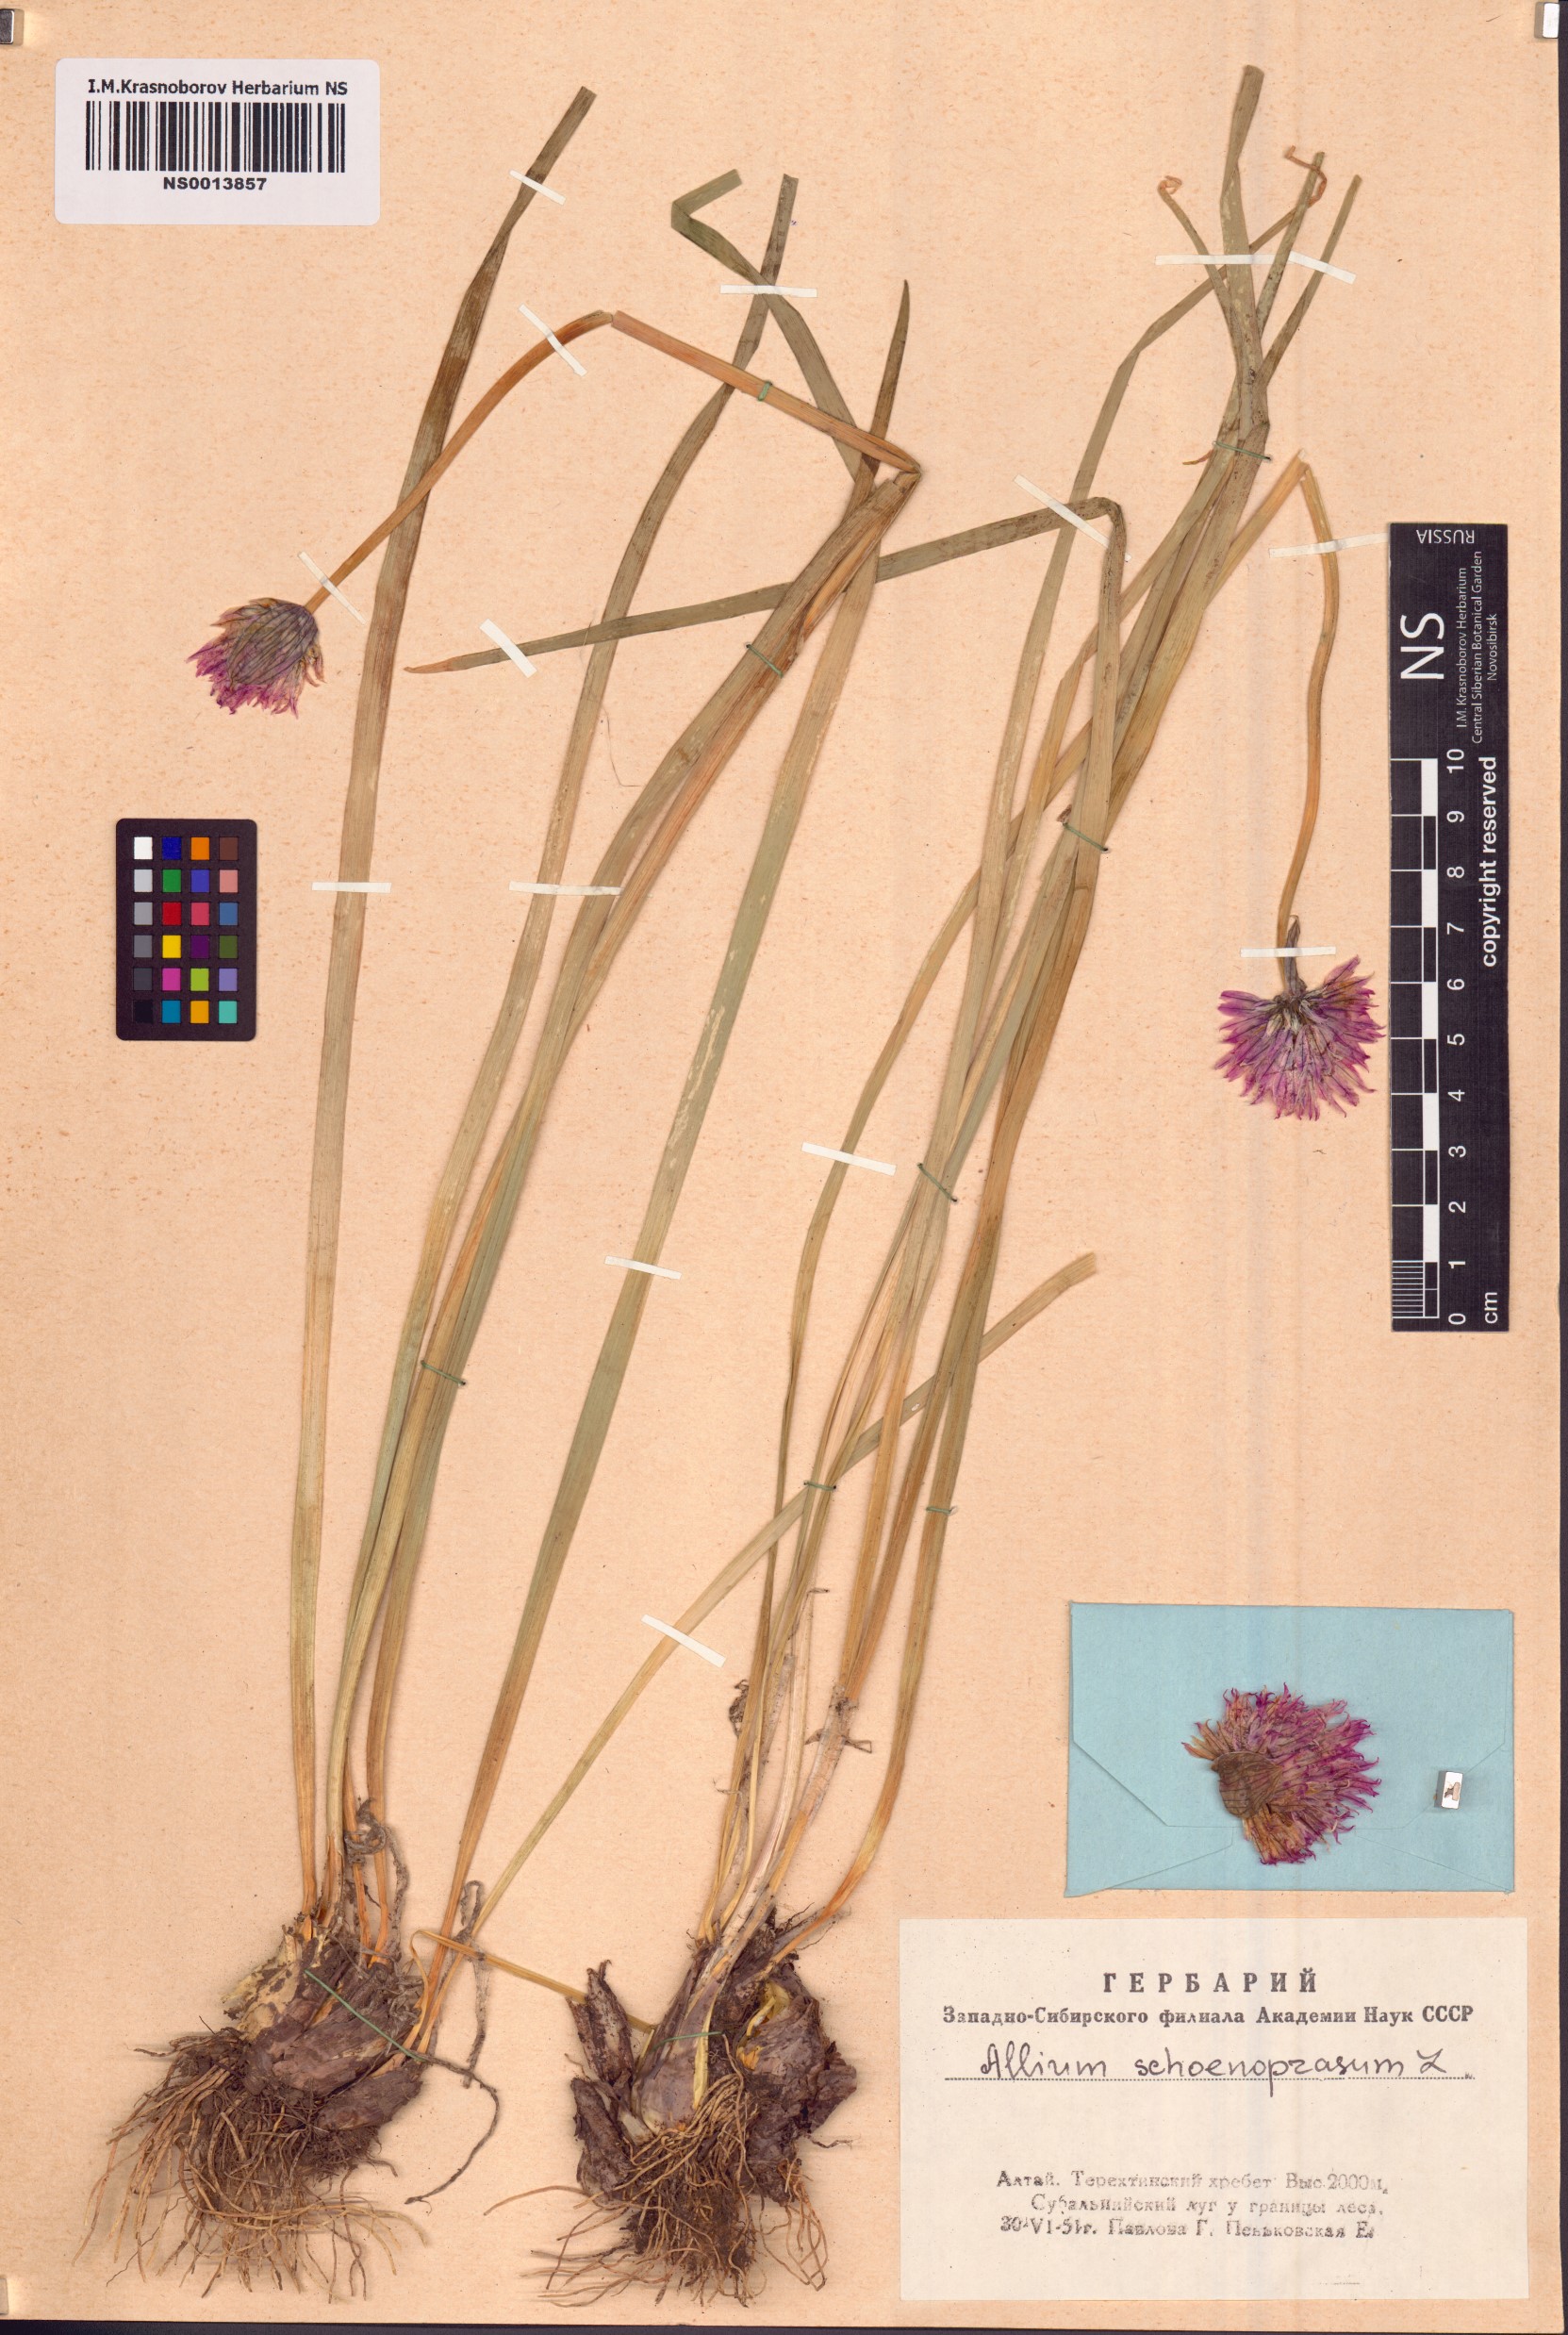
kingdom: Plantae
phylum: Tracheophyta
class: Liliopsida
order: Asparagales
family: Amaryllidaceae
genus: Allium
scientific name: Allium schoenoprasum
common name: Chives
